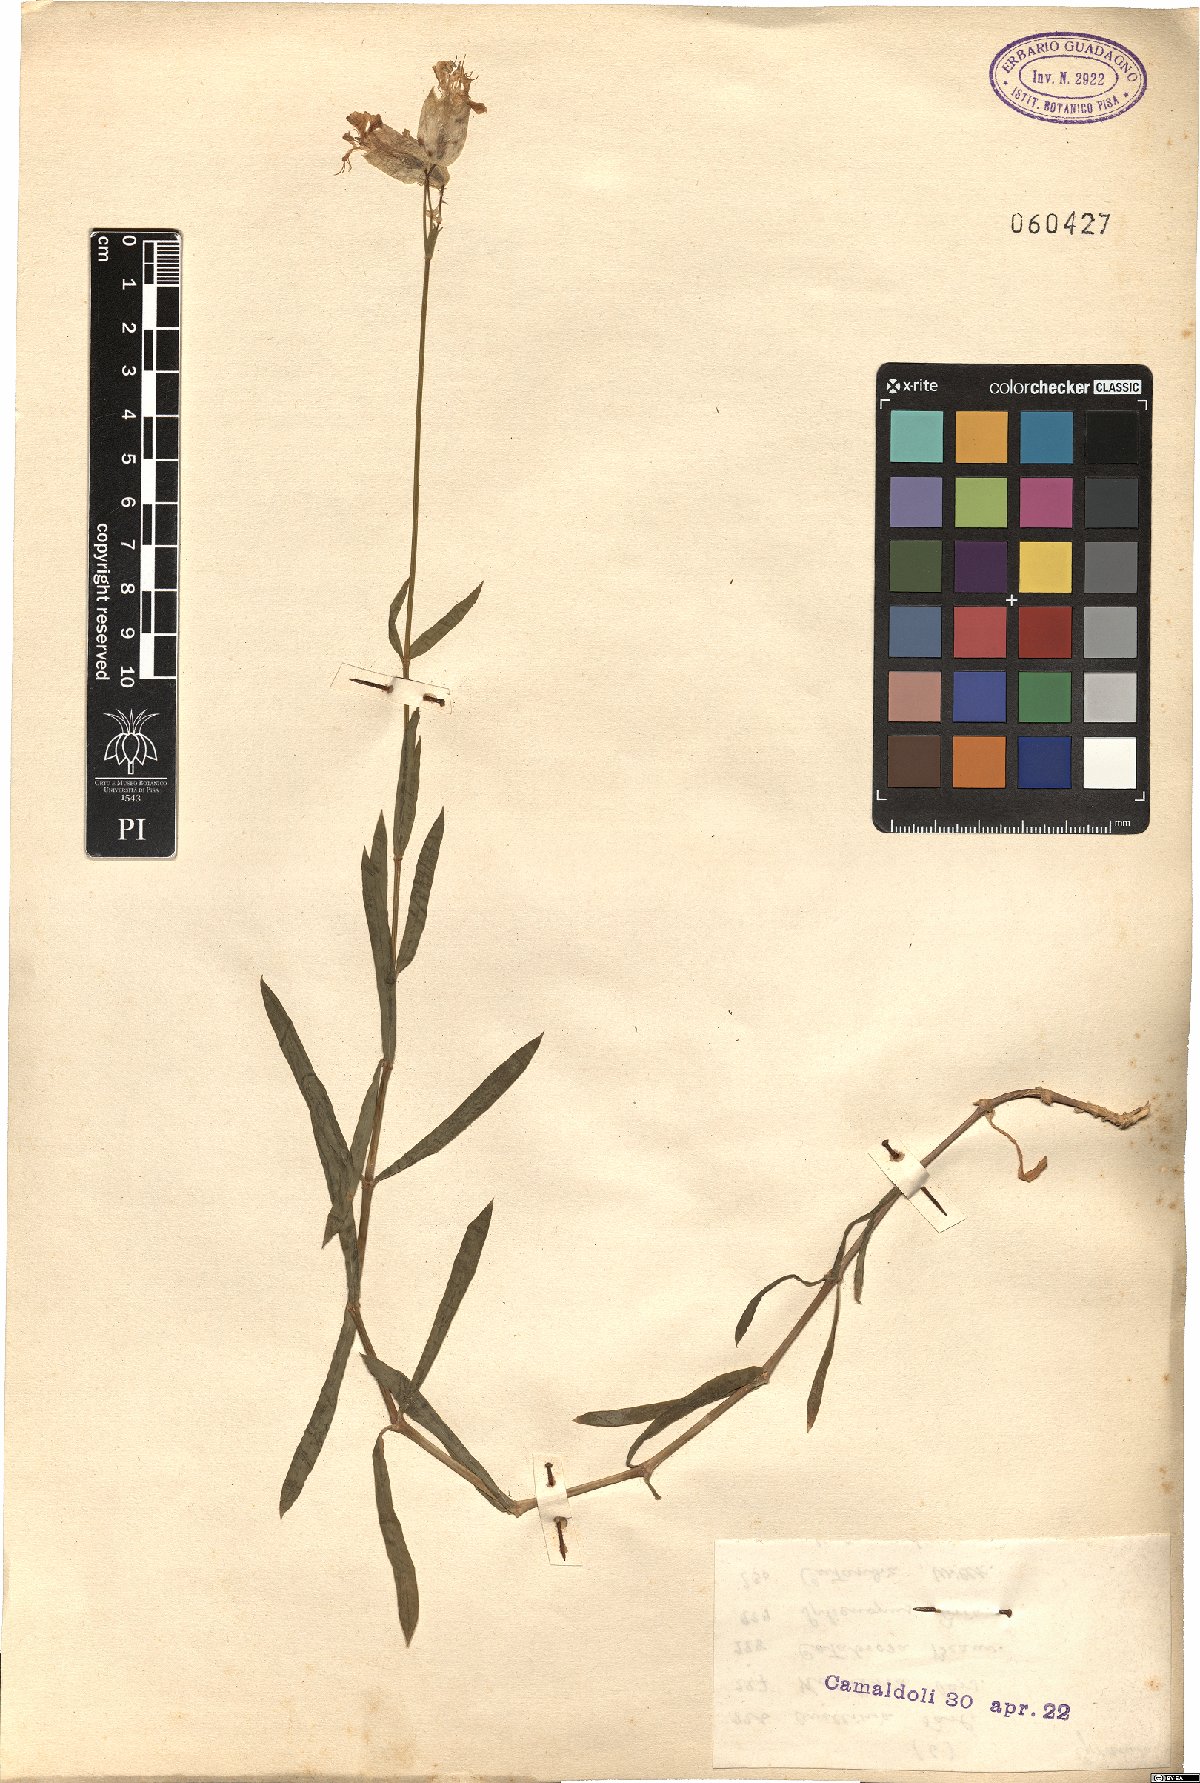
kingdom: Plantae
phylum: Tracheophyta
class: Magnoliopsida
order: Caryophyllales
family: Caryophyllaceae
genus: Silene
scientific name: Silene vulgaris
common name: Bladder campion
